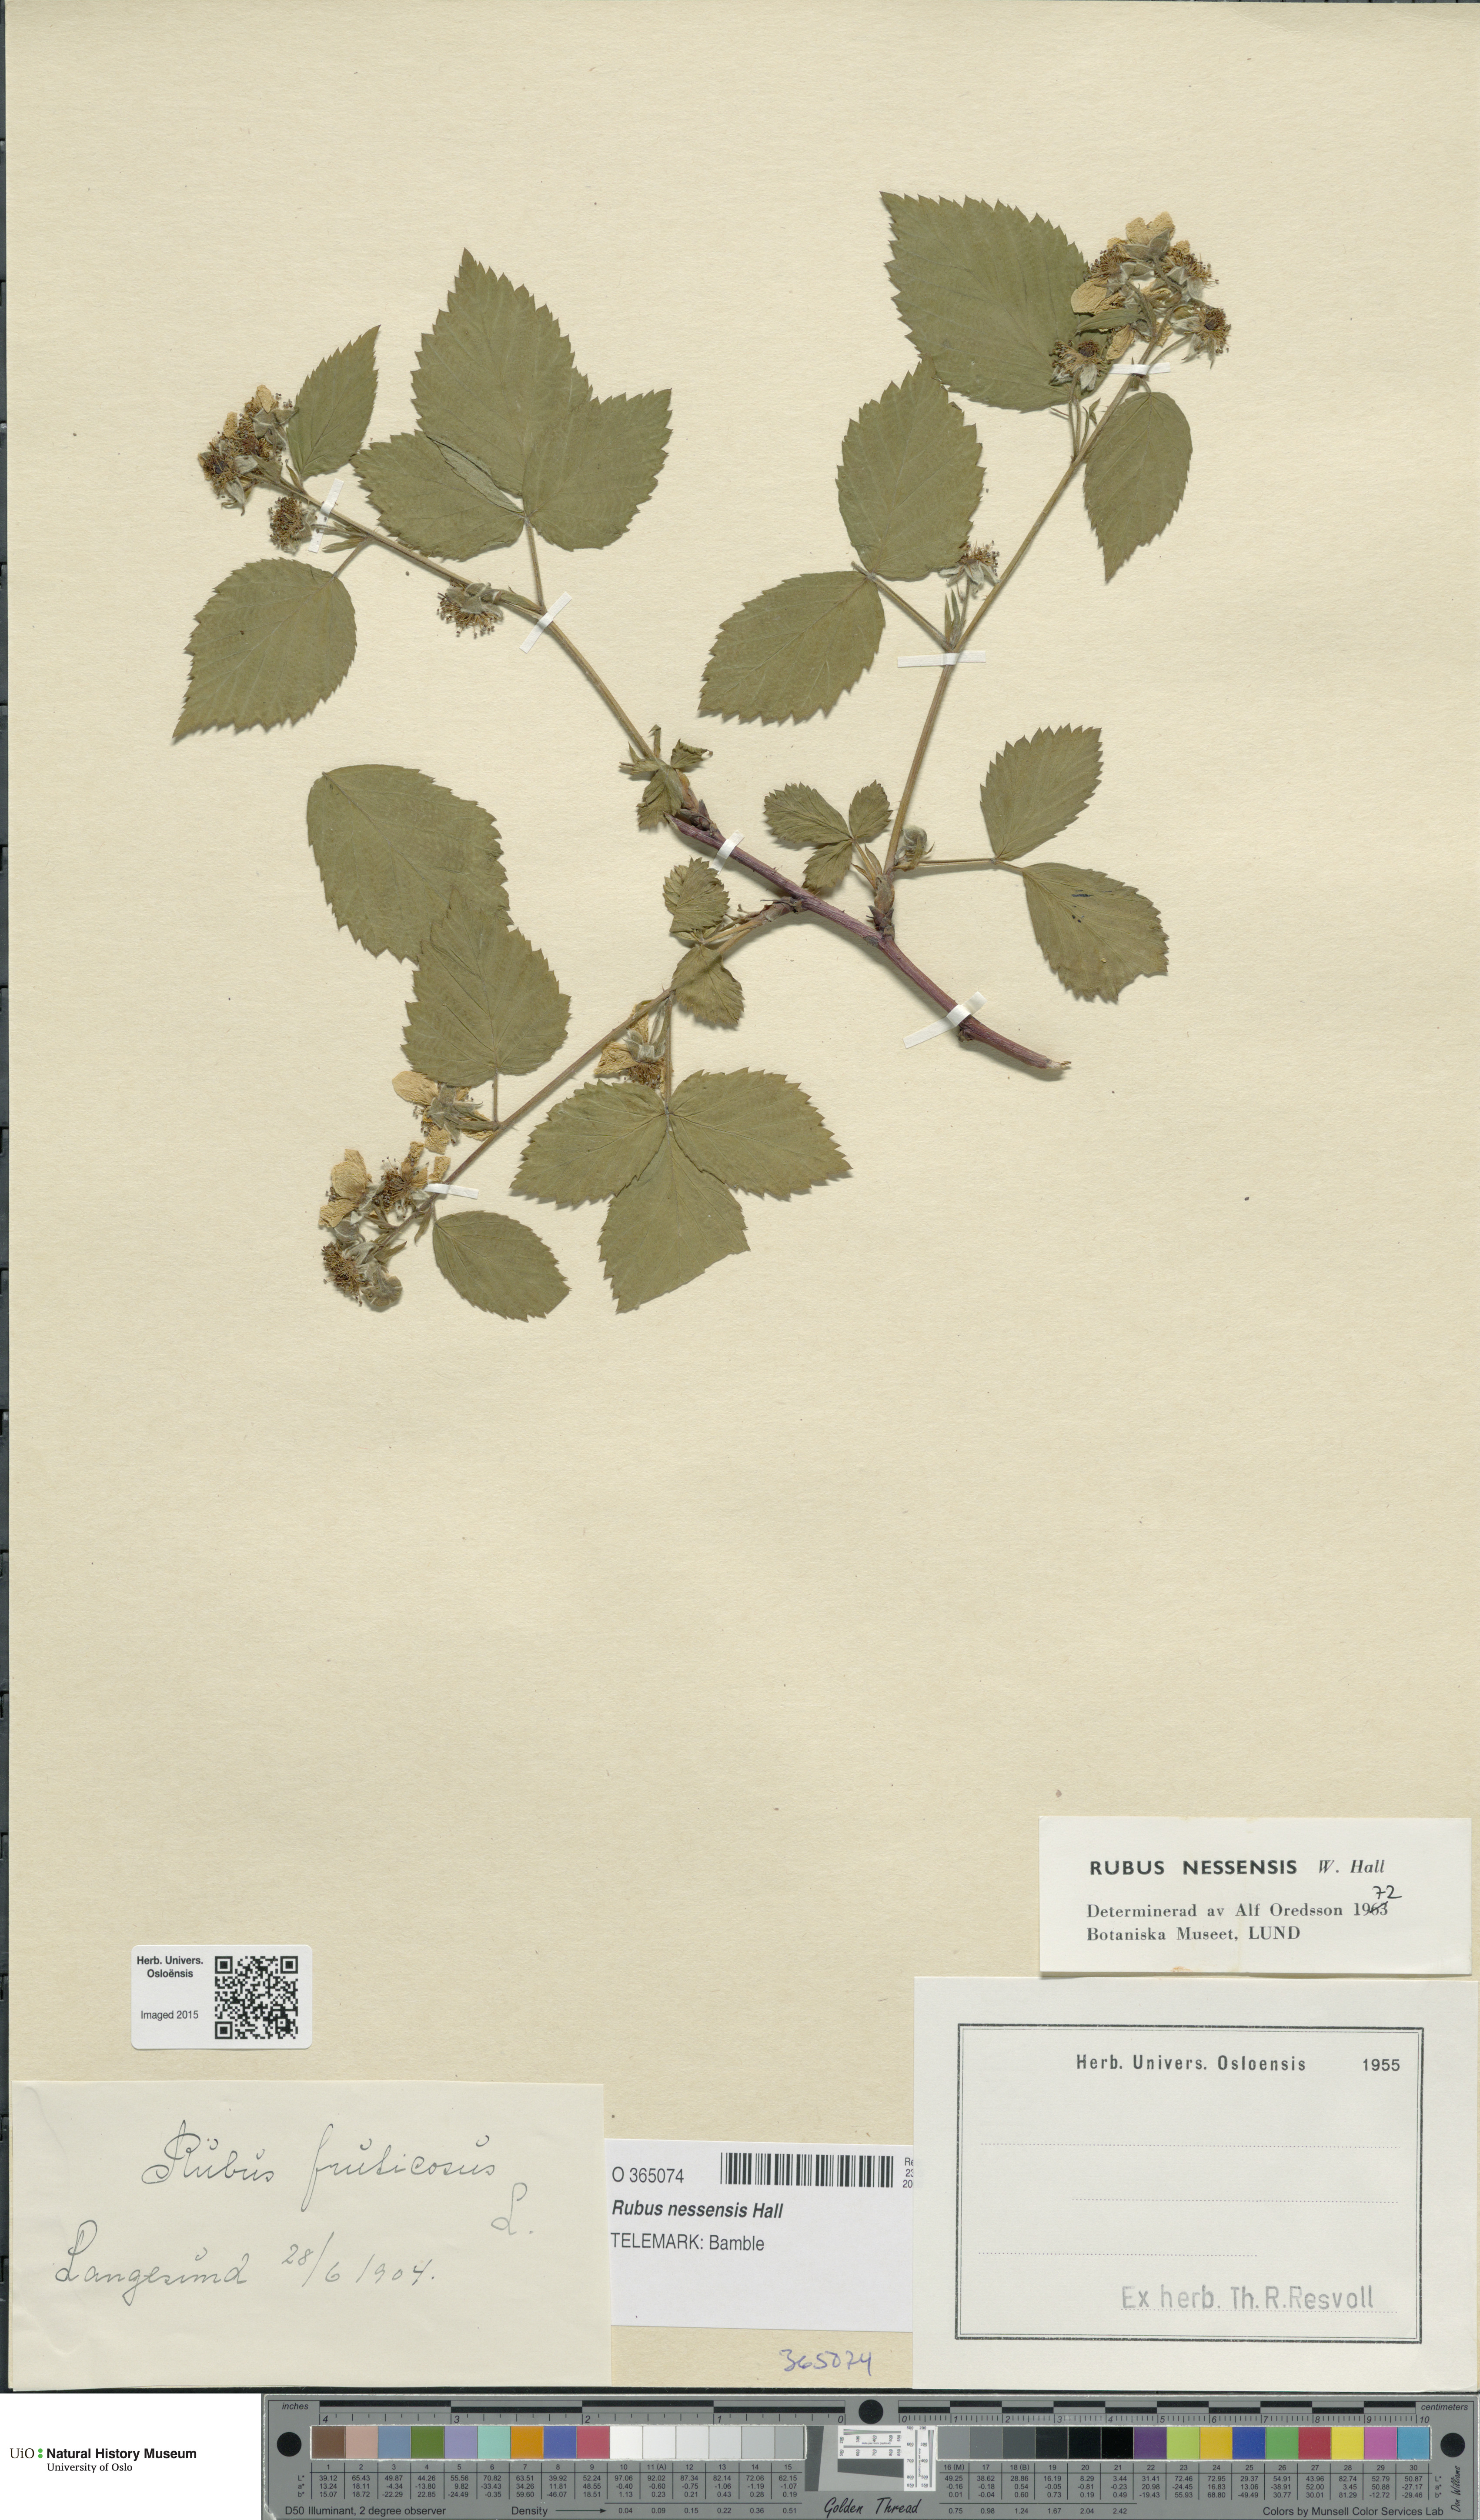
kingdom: Plantae
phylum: Tracheophyta
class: Magnoliopsida
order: Rosales
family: Rosaceae
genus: Rubus
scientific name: Rubus polonicus
